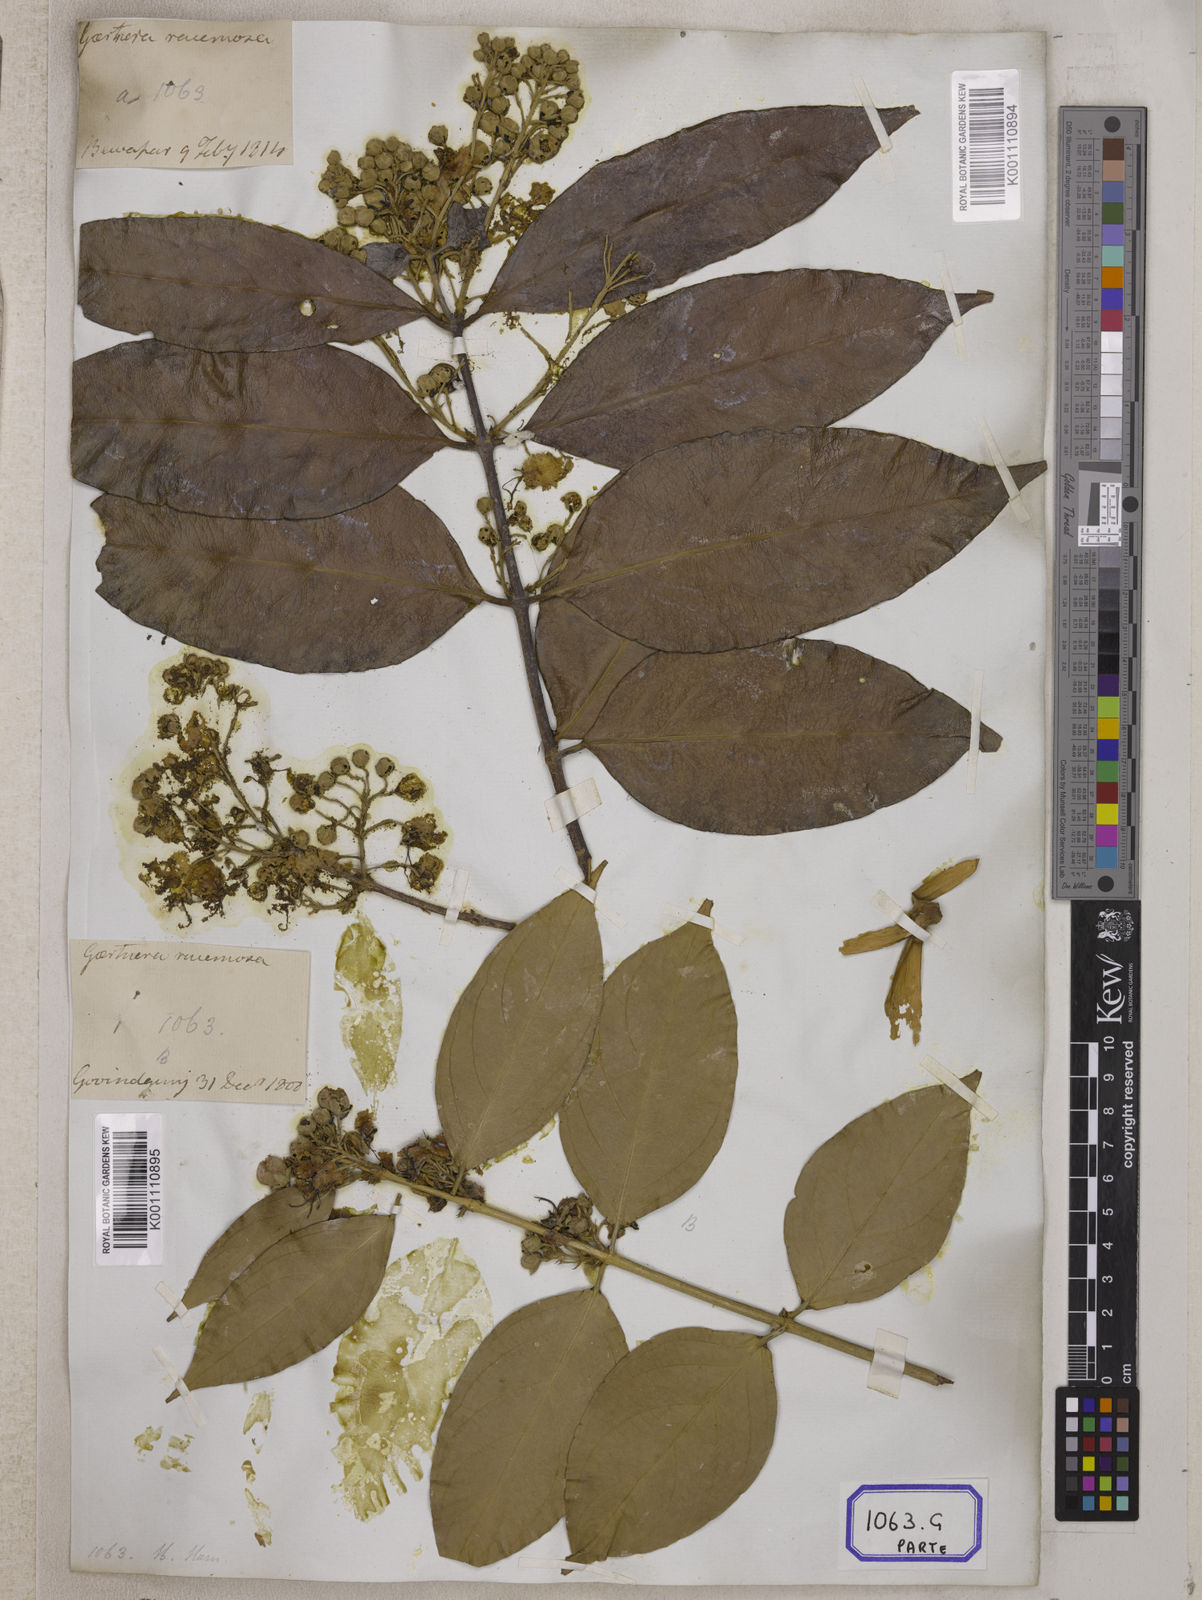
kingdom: Plantae
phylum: Tracheophyta
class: Magnoliopsida
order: Malpighiales
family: Malpighiaceae
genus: Hiptage
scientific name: Hiptage benghalensis
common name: Hiptage
